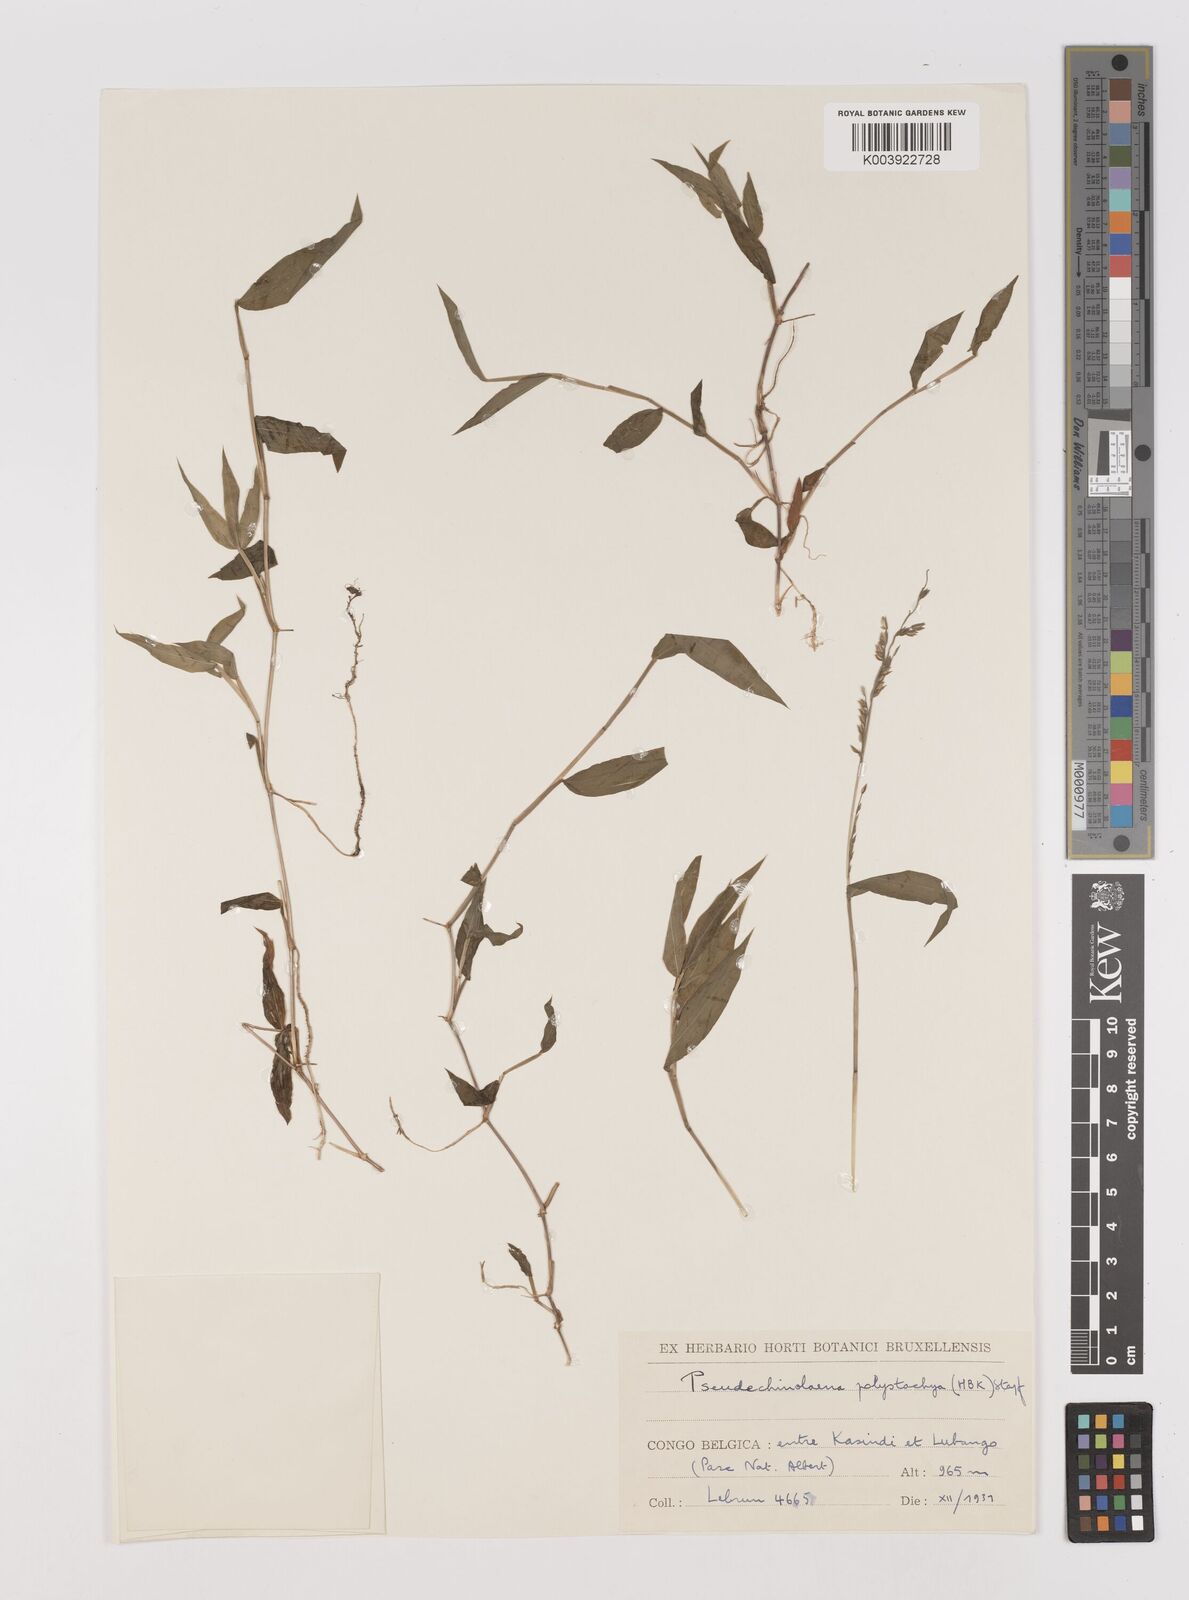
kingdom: Plantae
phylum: Tracheophyta
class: Liliopsida
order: Poales
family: Poaceae
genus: Pseudechinolaena
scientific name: Pseudechinolaena polystachya
